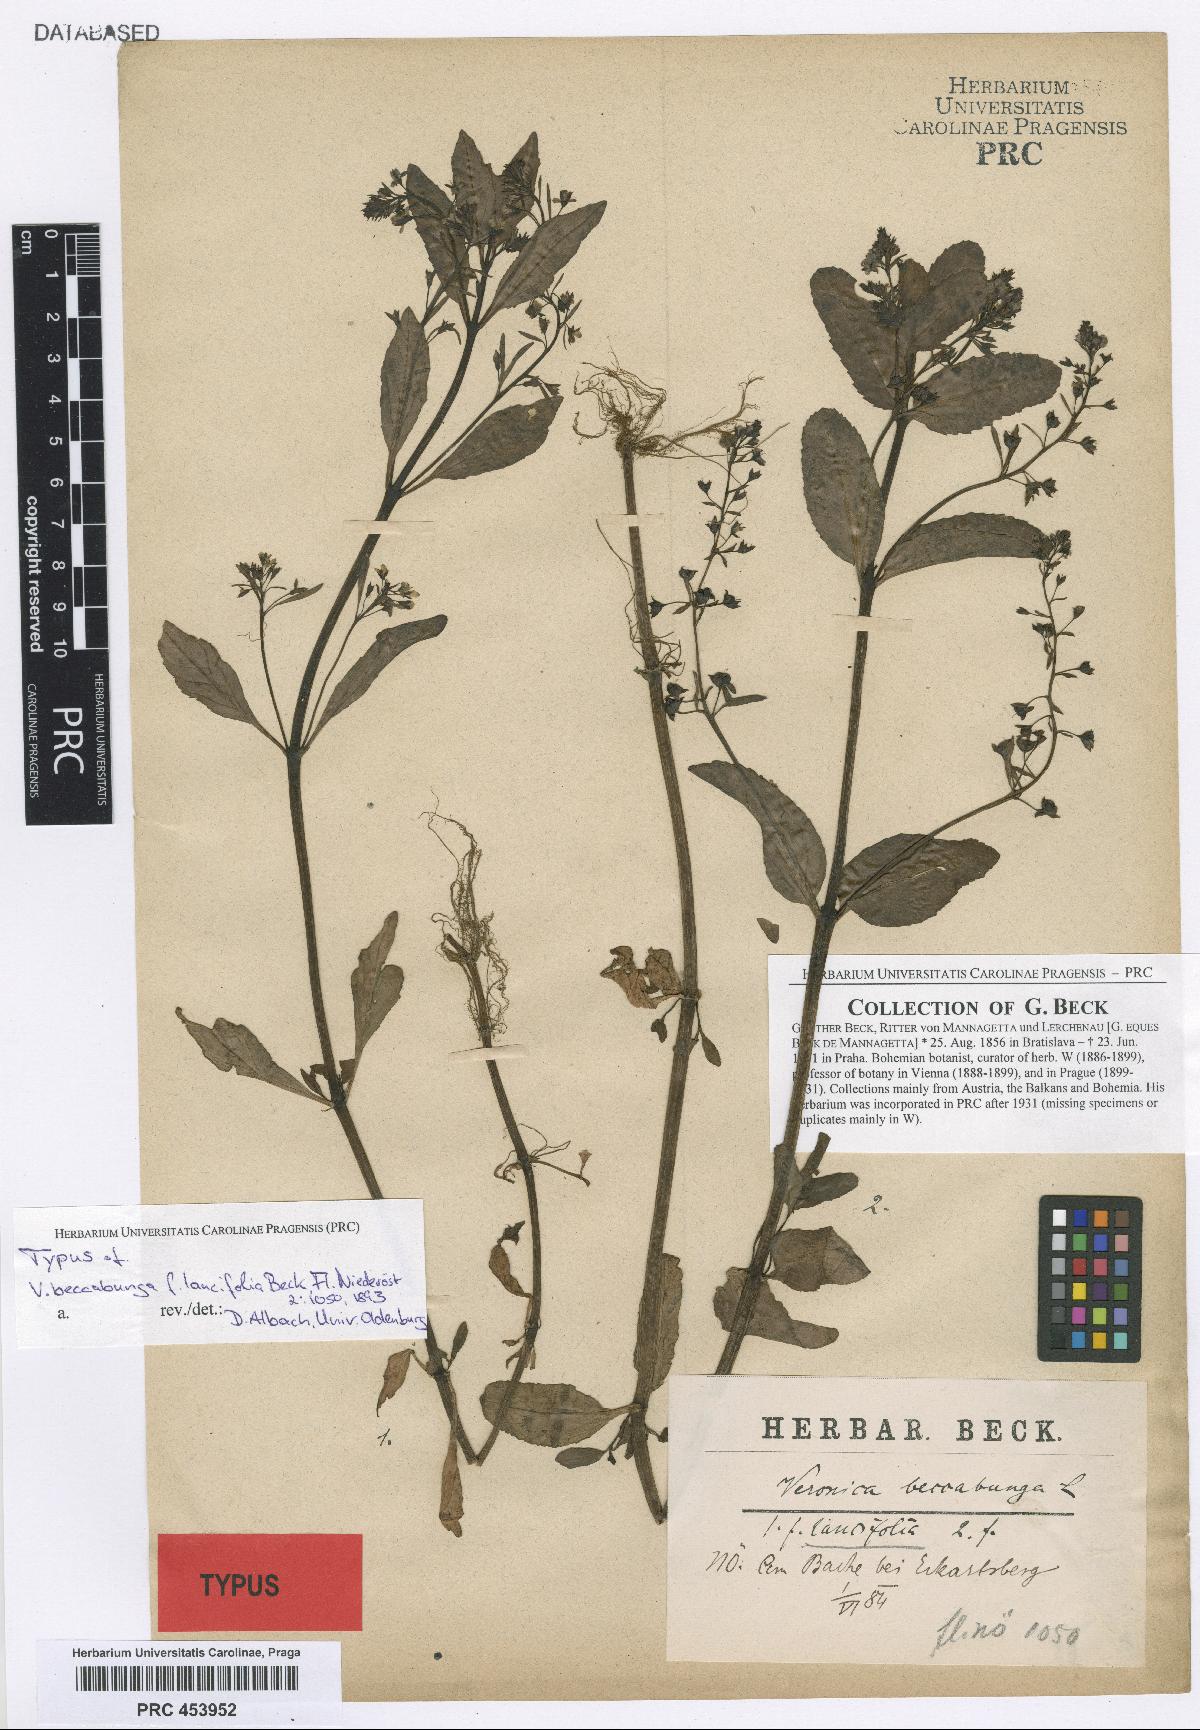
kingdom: Plantae
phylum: Tracheophyta
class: Magnoliopsida
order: Lamiales
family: Plantaginaceae
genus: Veronica
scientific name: Veronica beccabunga
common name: Brooklime
